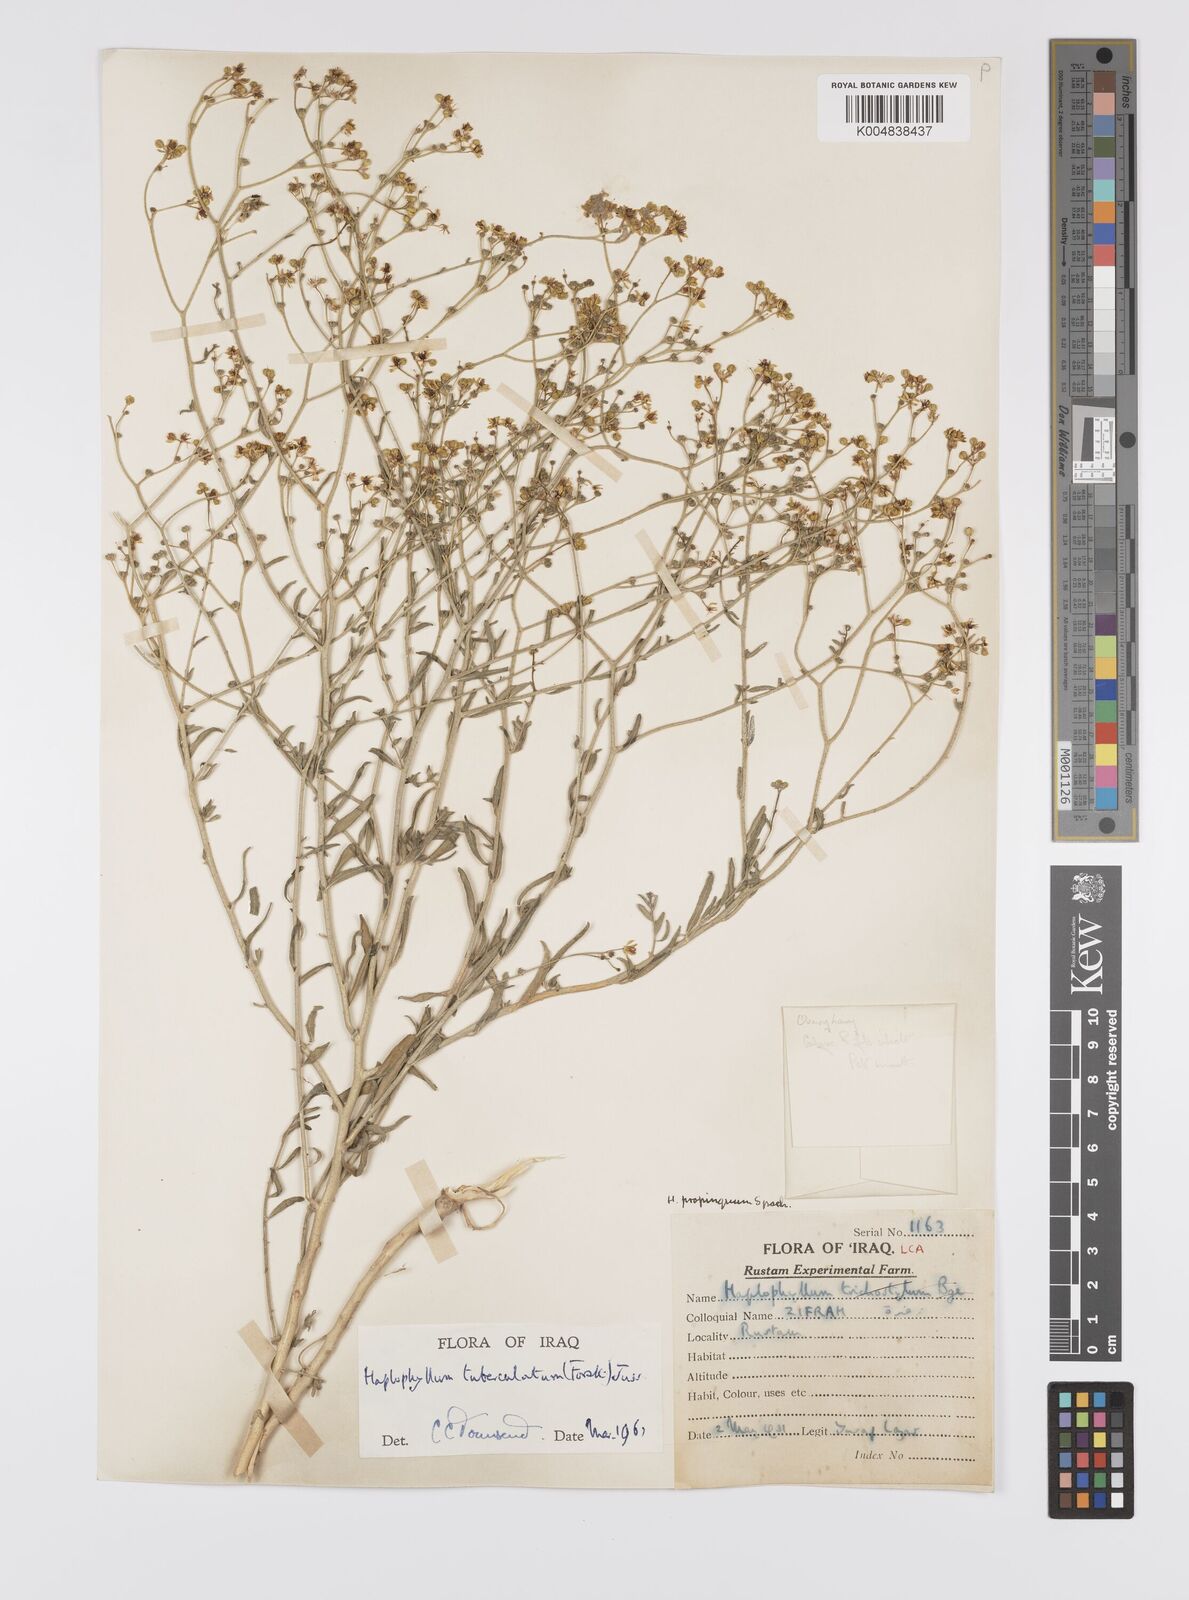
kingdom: Plantae
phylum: Tracheophyta
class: Magnoliopsida
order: Sapindales
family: Rutaceae
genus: Haplophyllum
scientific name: Haplophyllum tuberculatum
